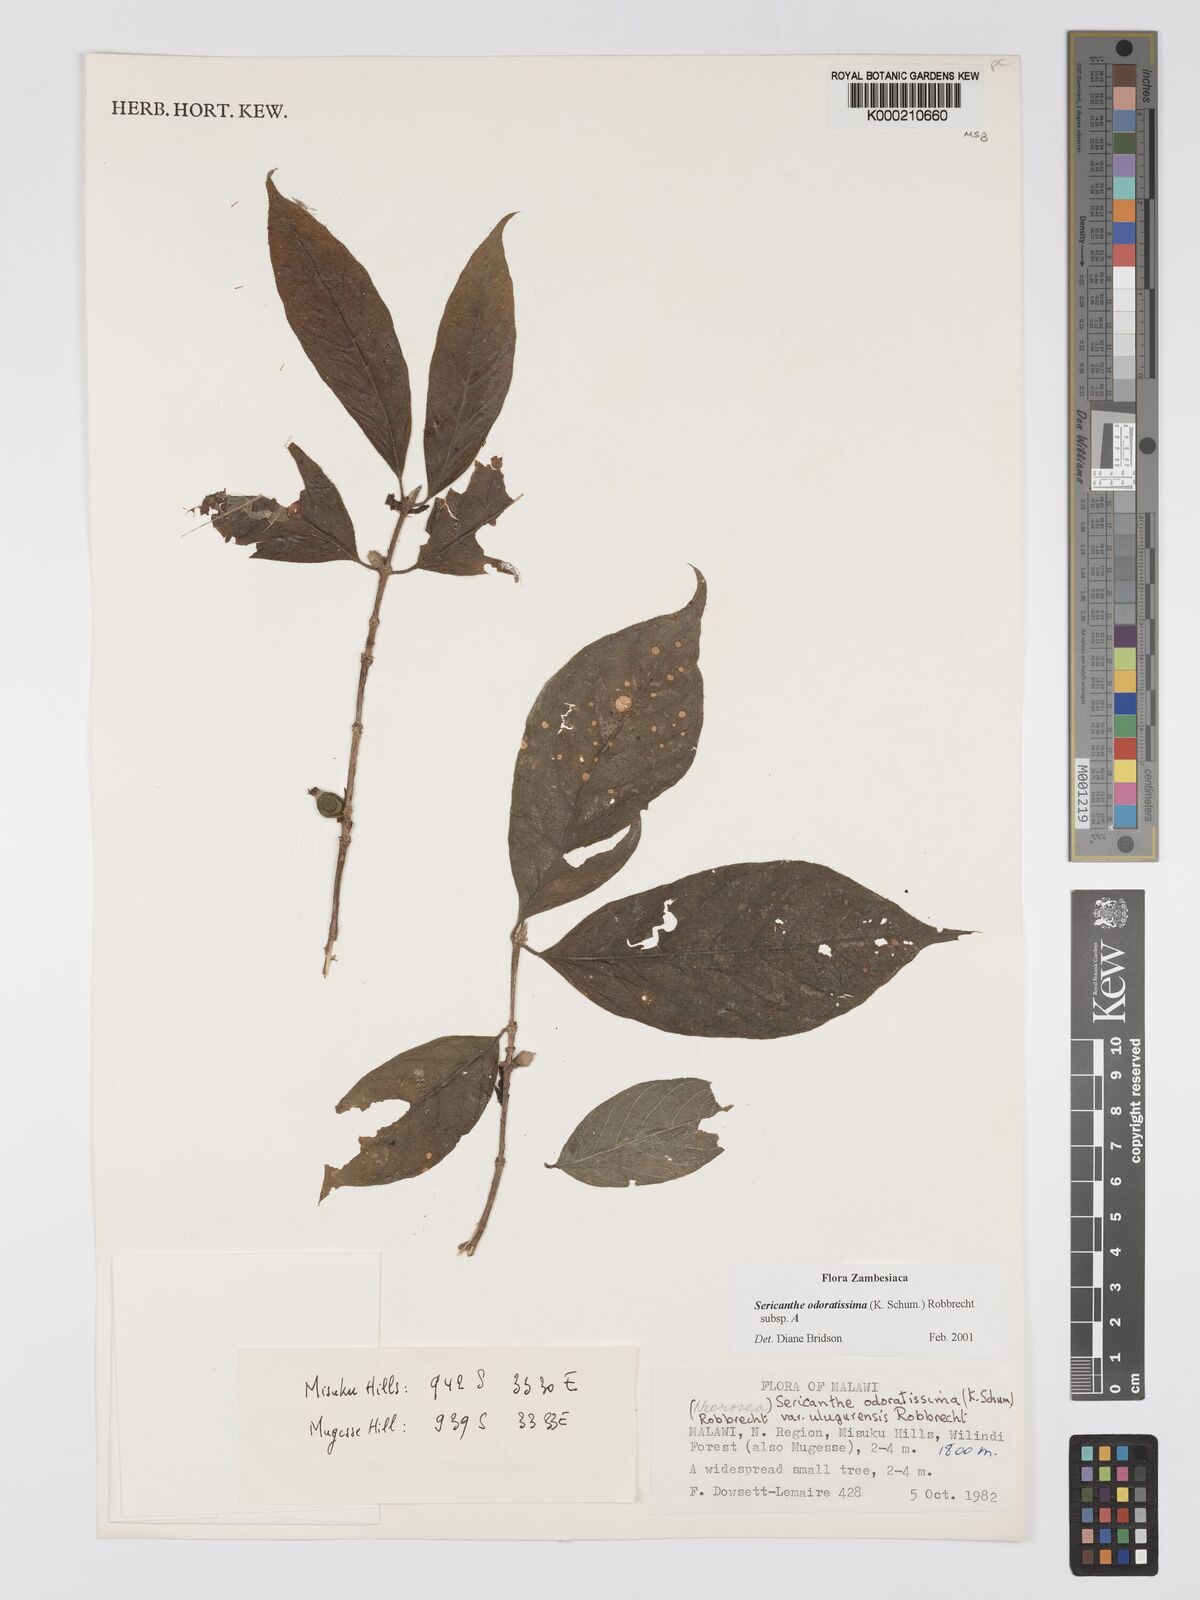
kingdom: Plantae
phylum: Tracheophyta
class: Magnoliopsida
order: Gentianales
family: Rubiaceae
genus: Sericanthe
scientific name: Sericanthe odoratissima
